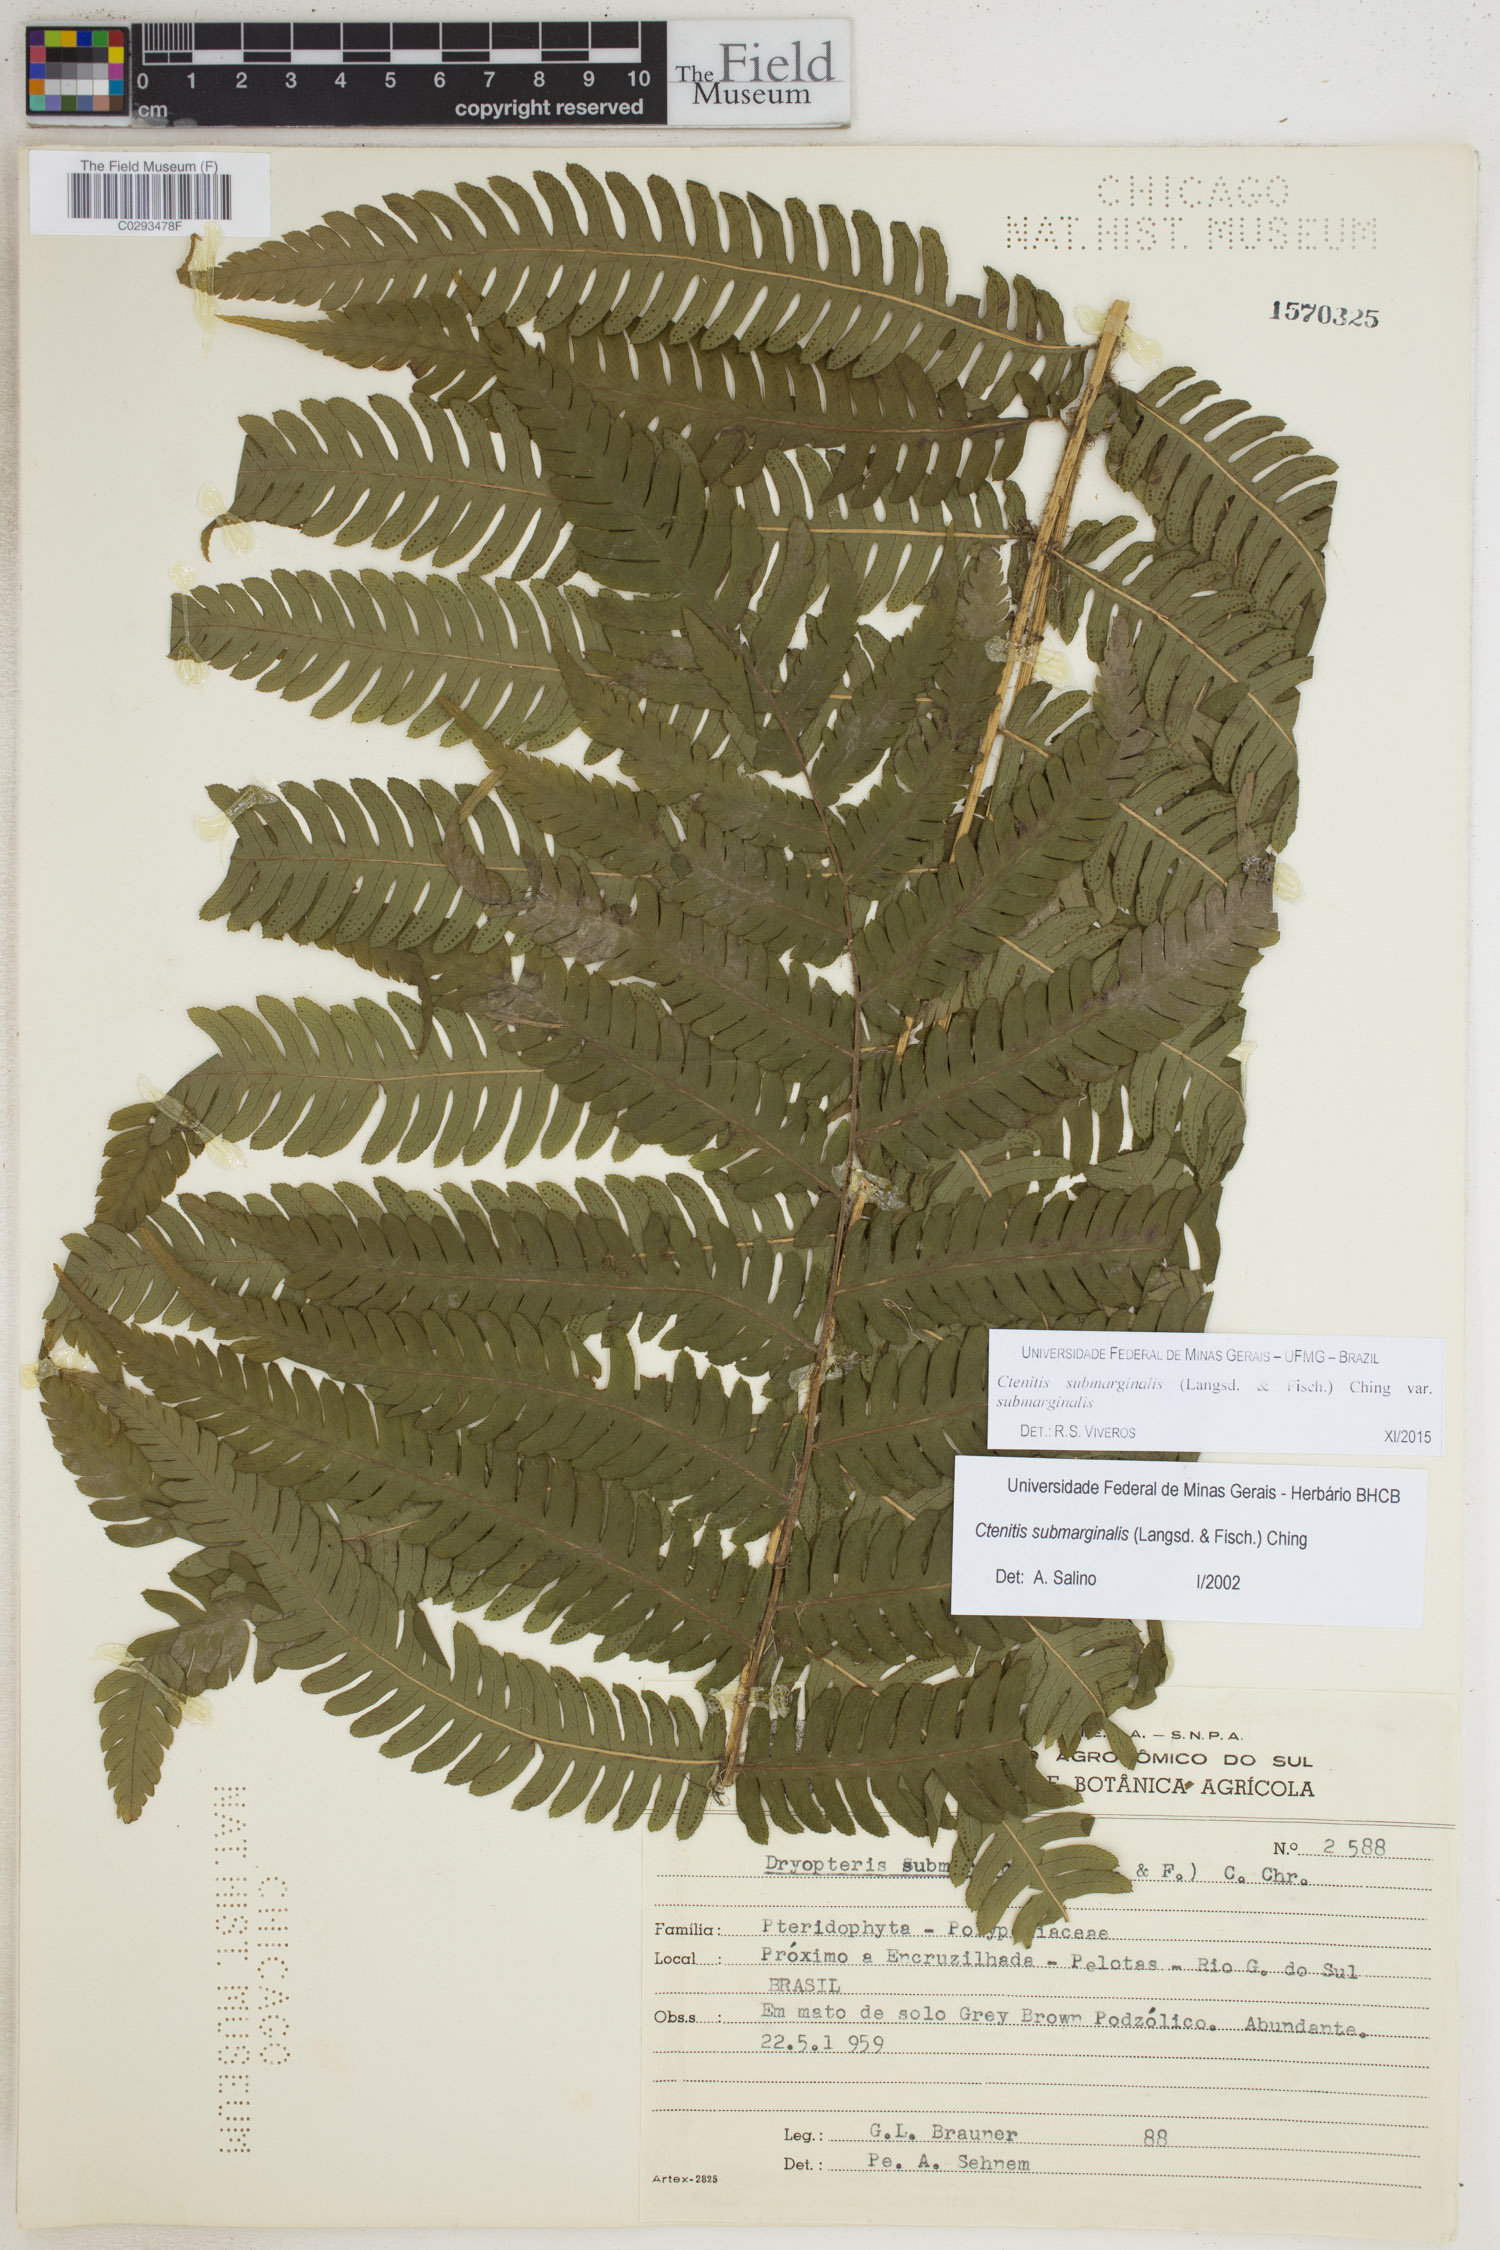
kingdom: Plantae
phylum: Tracheophyta
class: Polypodiopsida
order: Polypodiales
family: Dryopteridaceae
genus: Ctenitis
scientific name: Ctenitis submarginalis
